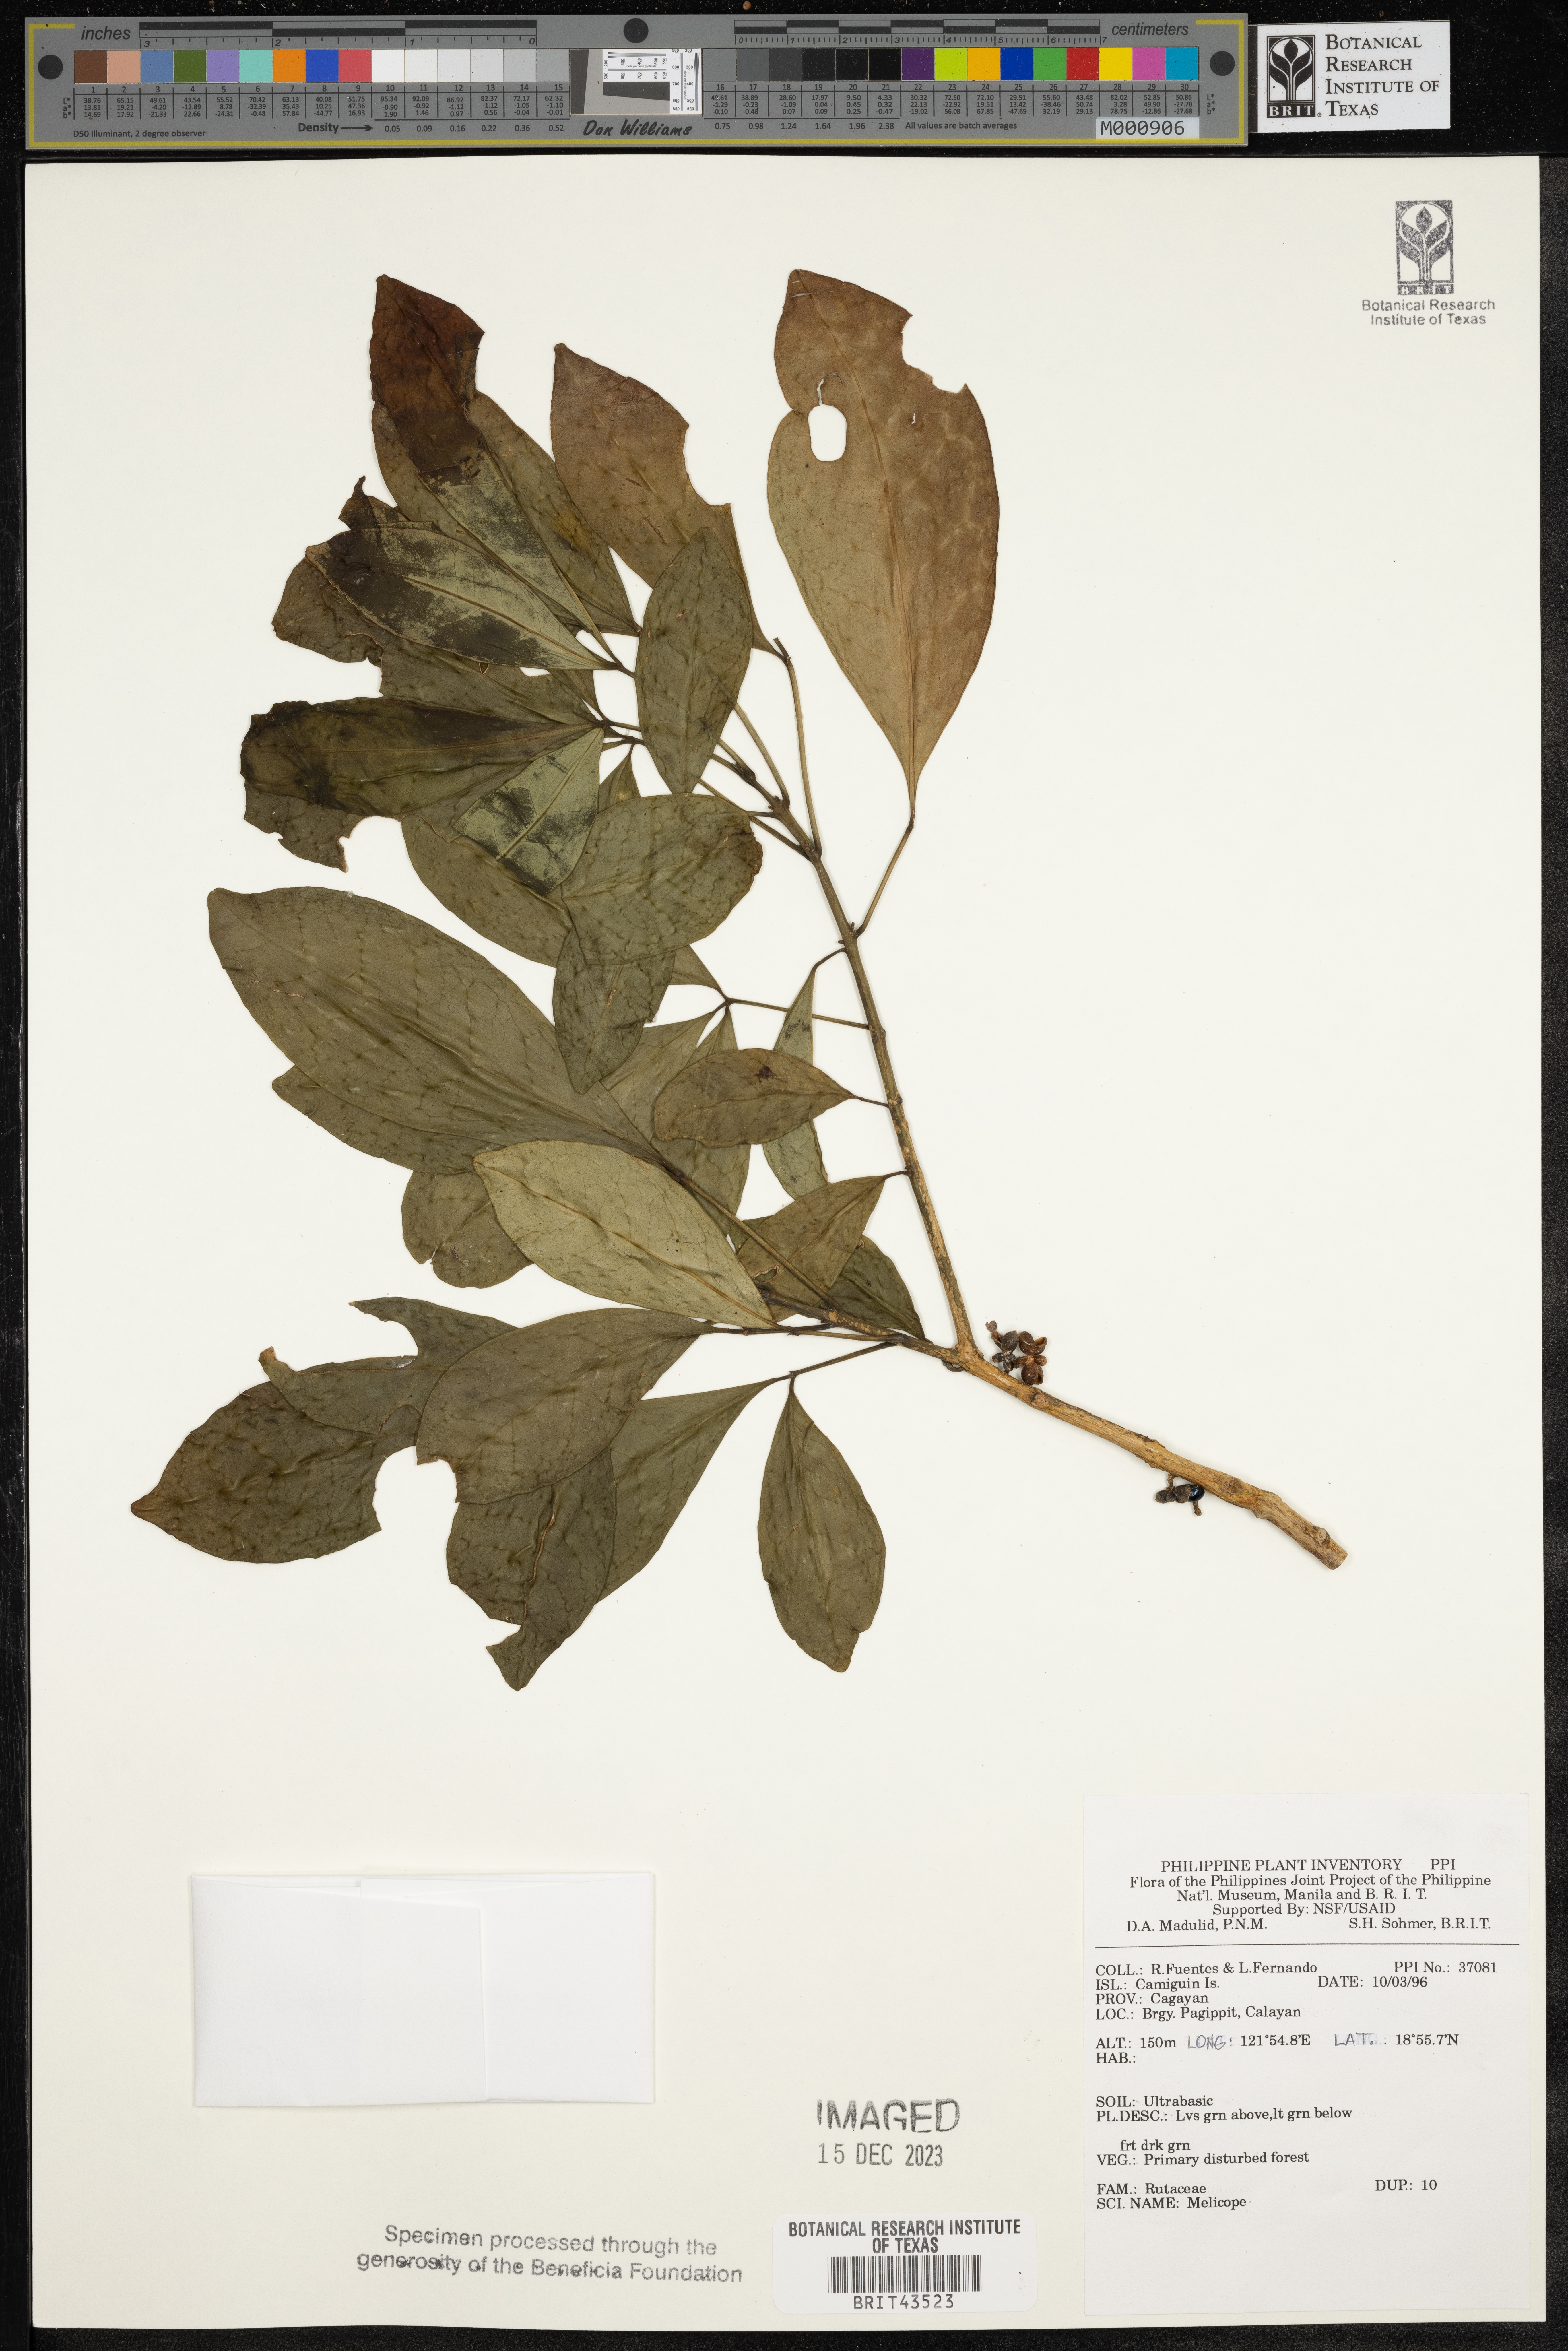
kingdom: Plantae
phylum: Tracheophyta
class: Magnoliopsida
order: Sapindales
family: Rutaceae
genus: Melicope
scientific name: Melicope
